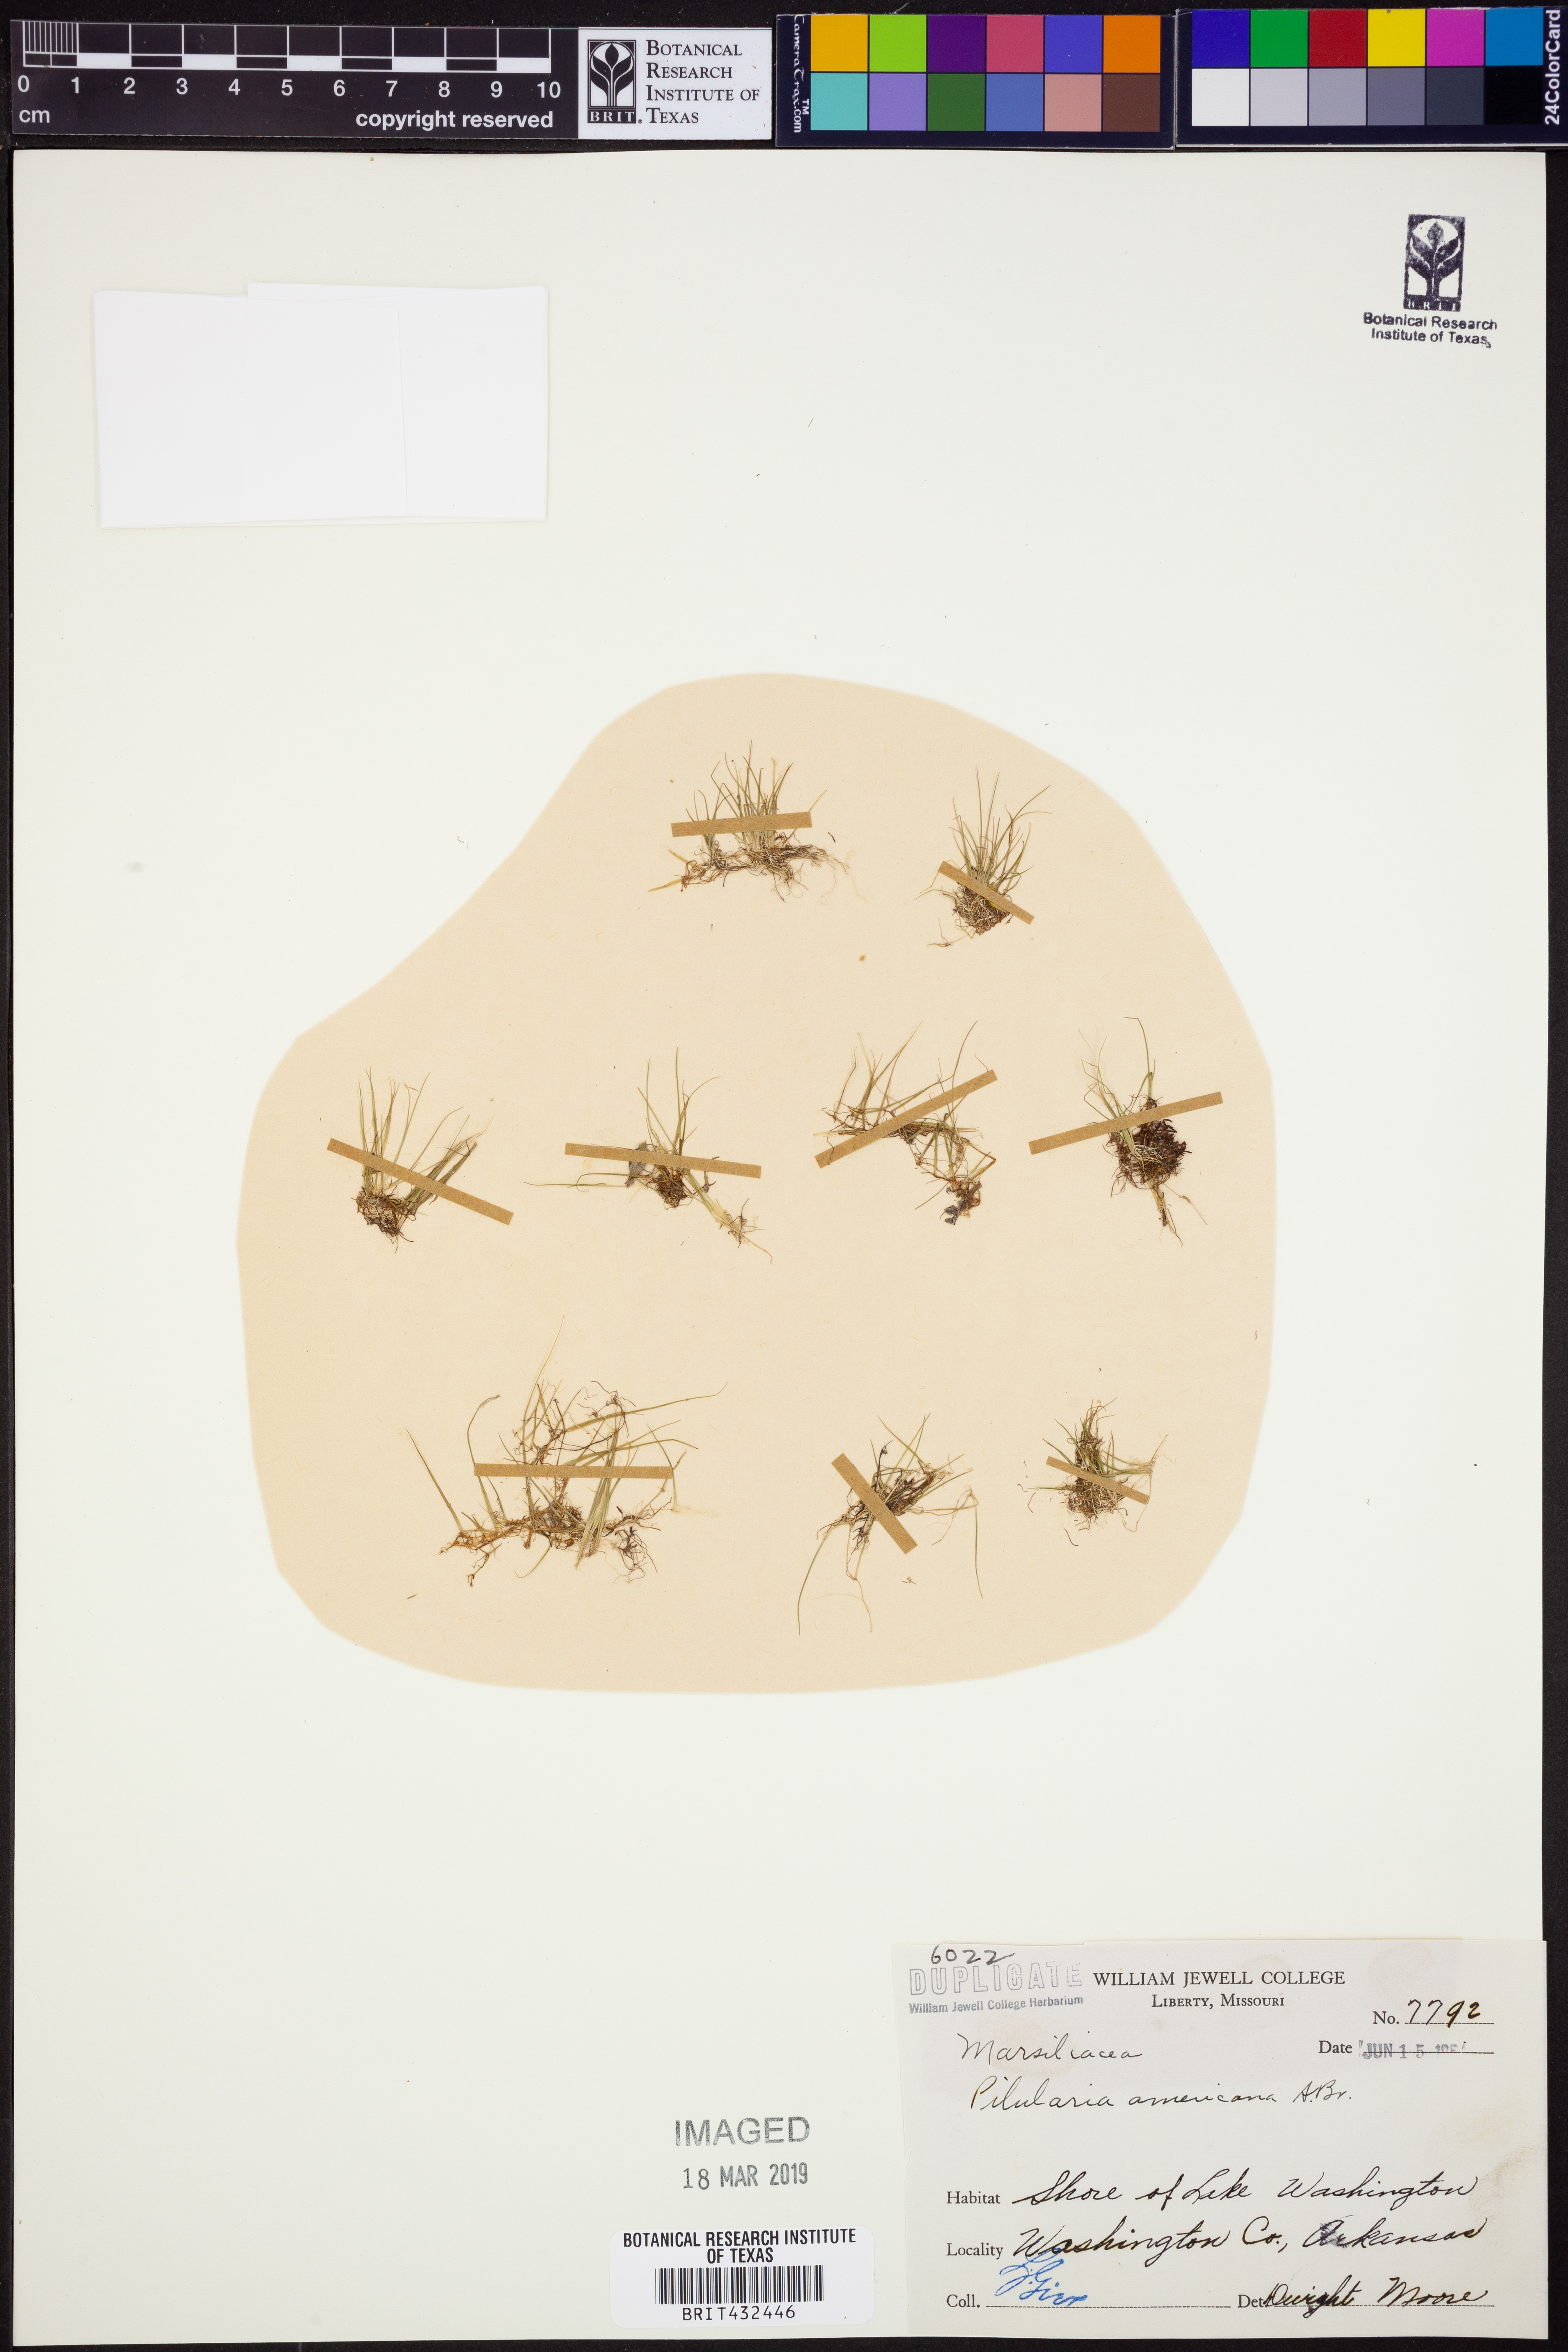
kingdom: Plantae
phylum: Tracheophyta
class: Polypodiopsida
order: Salviniales
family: Marsileaceae
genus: Pilularia
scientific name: Pilularia americana
